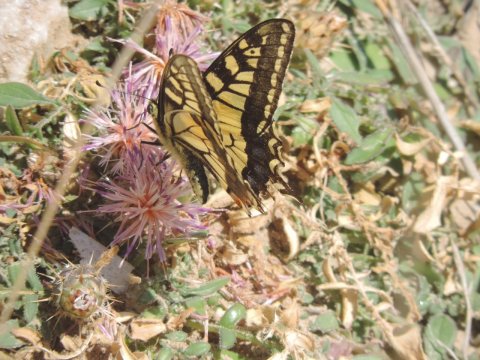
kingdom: Animalia
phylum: Arthropoda
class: Insecta
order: Lepidoptera
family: Papilionidae
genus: Papilio
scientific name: Papilio machaon
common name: Old World Swallowtail
